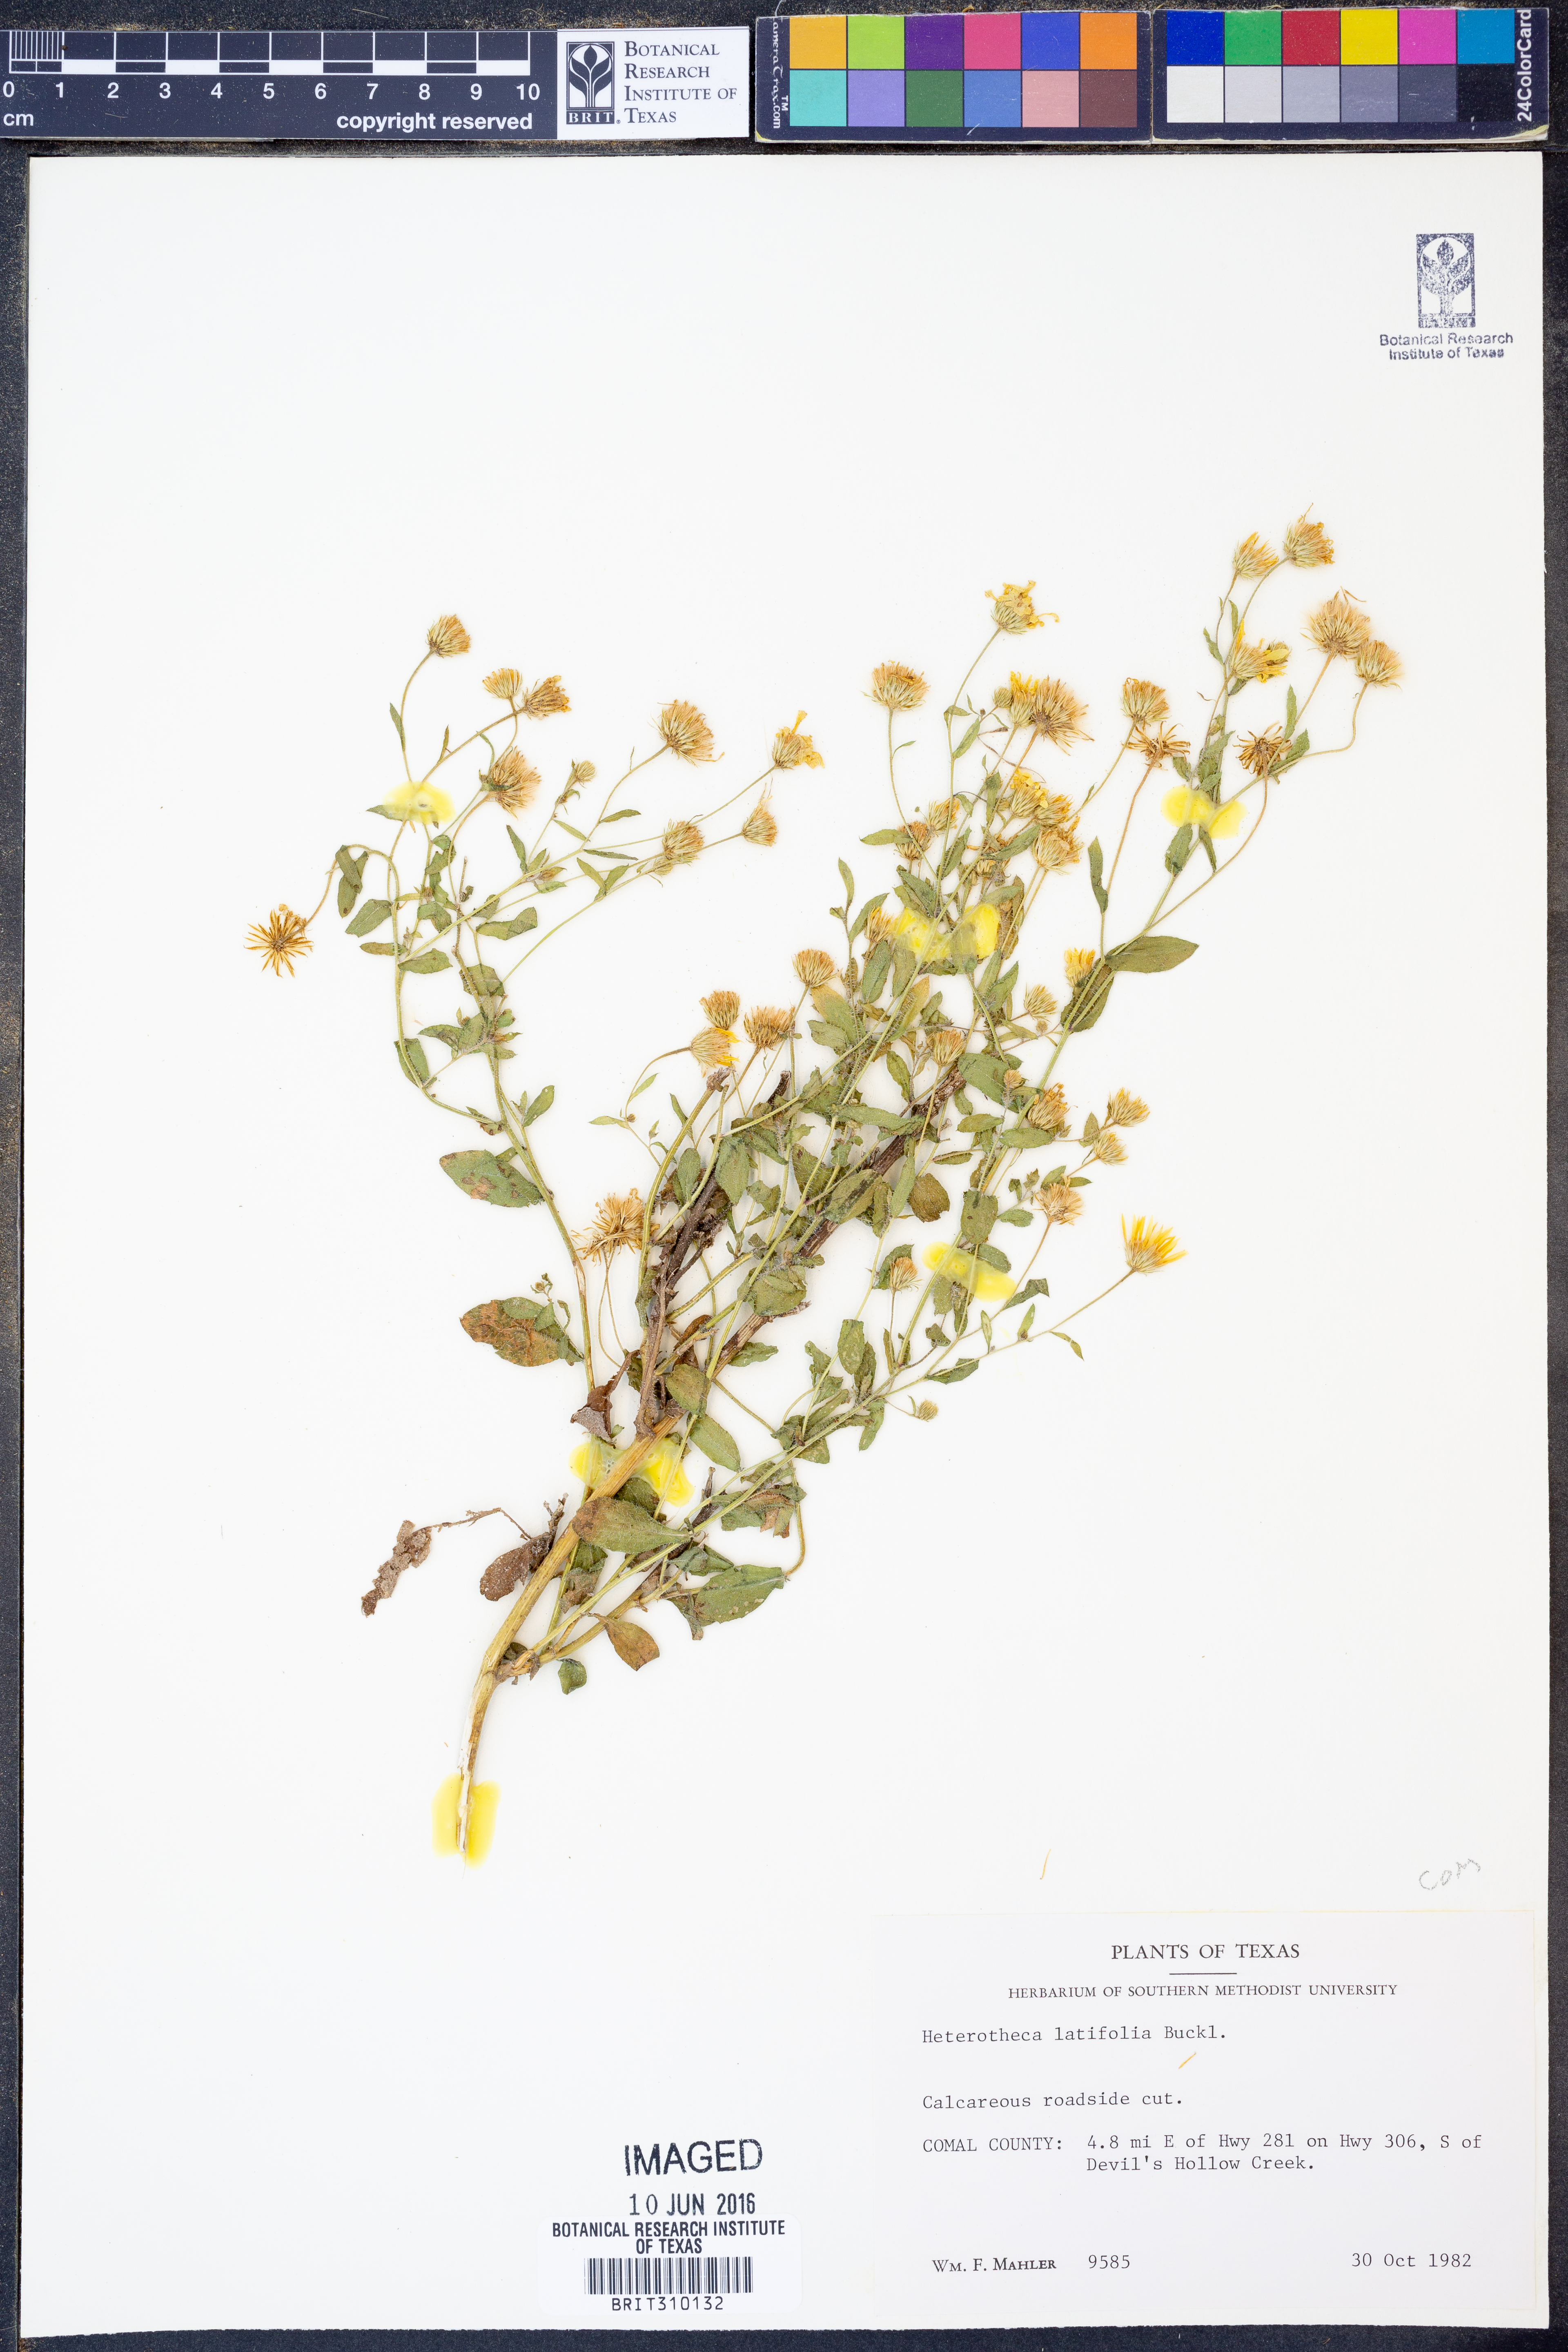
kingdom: Plantae
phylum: Tracheophyta
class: Magnoliopsida
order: Asterales
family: Asteraceae
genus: Heterotheca
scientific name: Heterotheca subaxillaris
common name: Camphorweed
